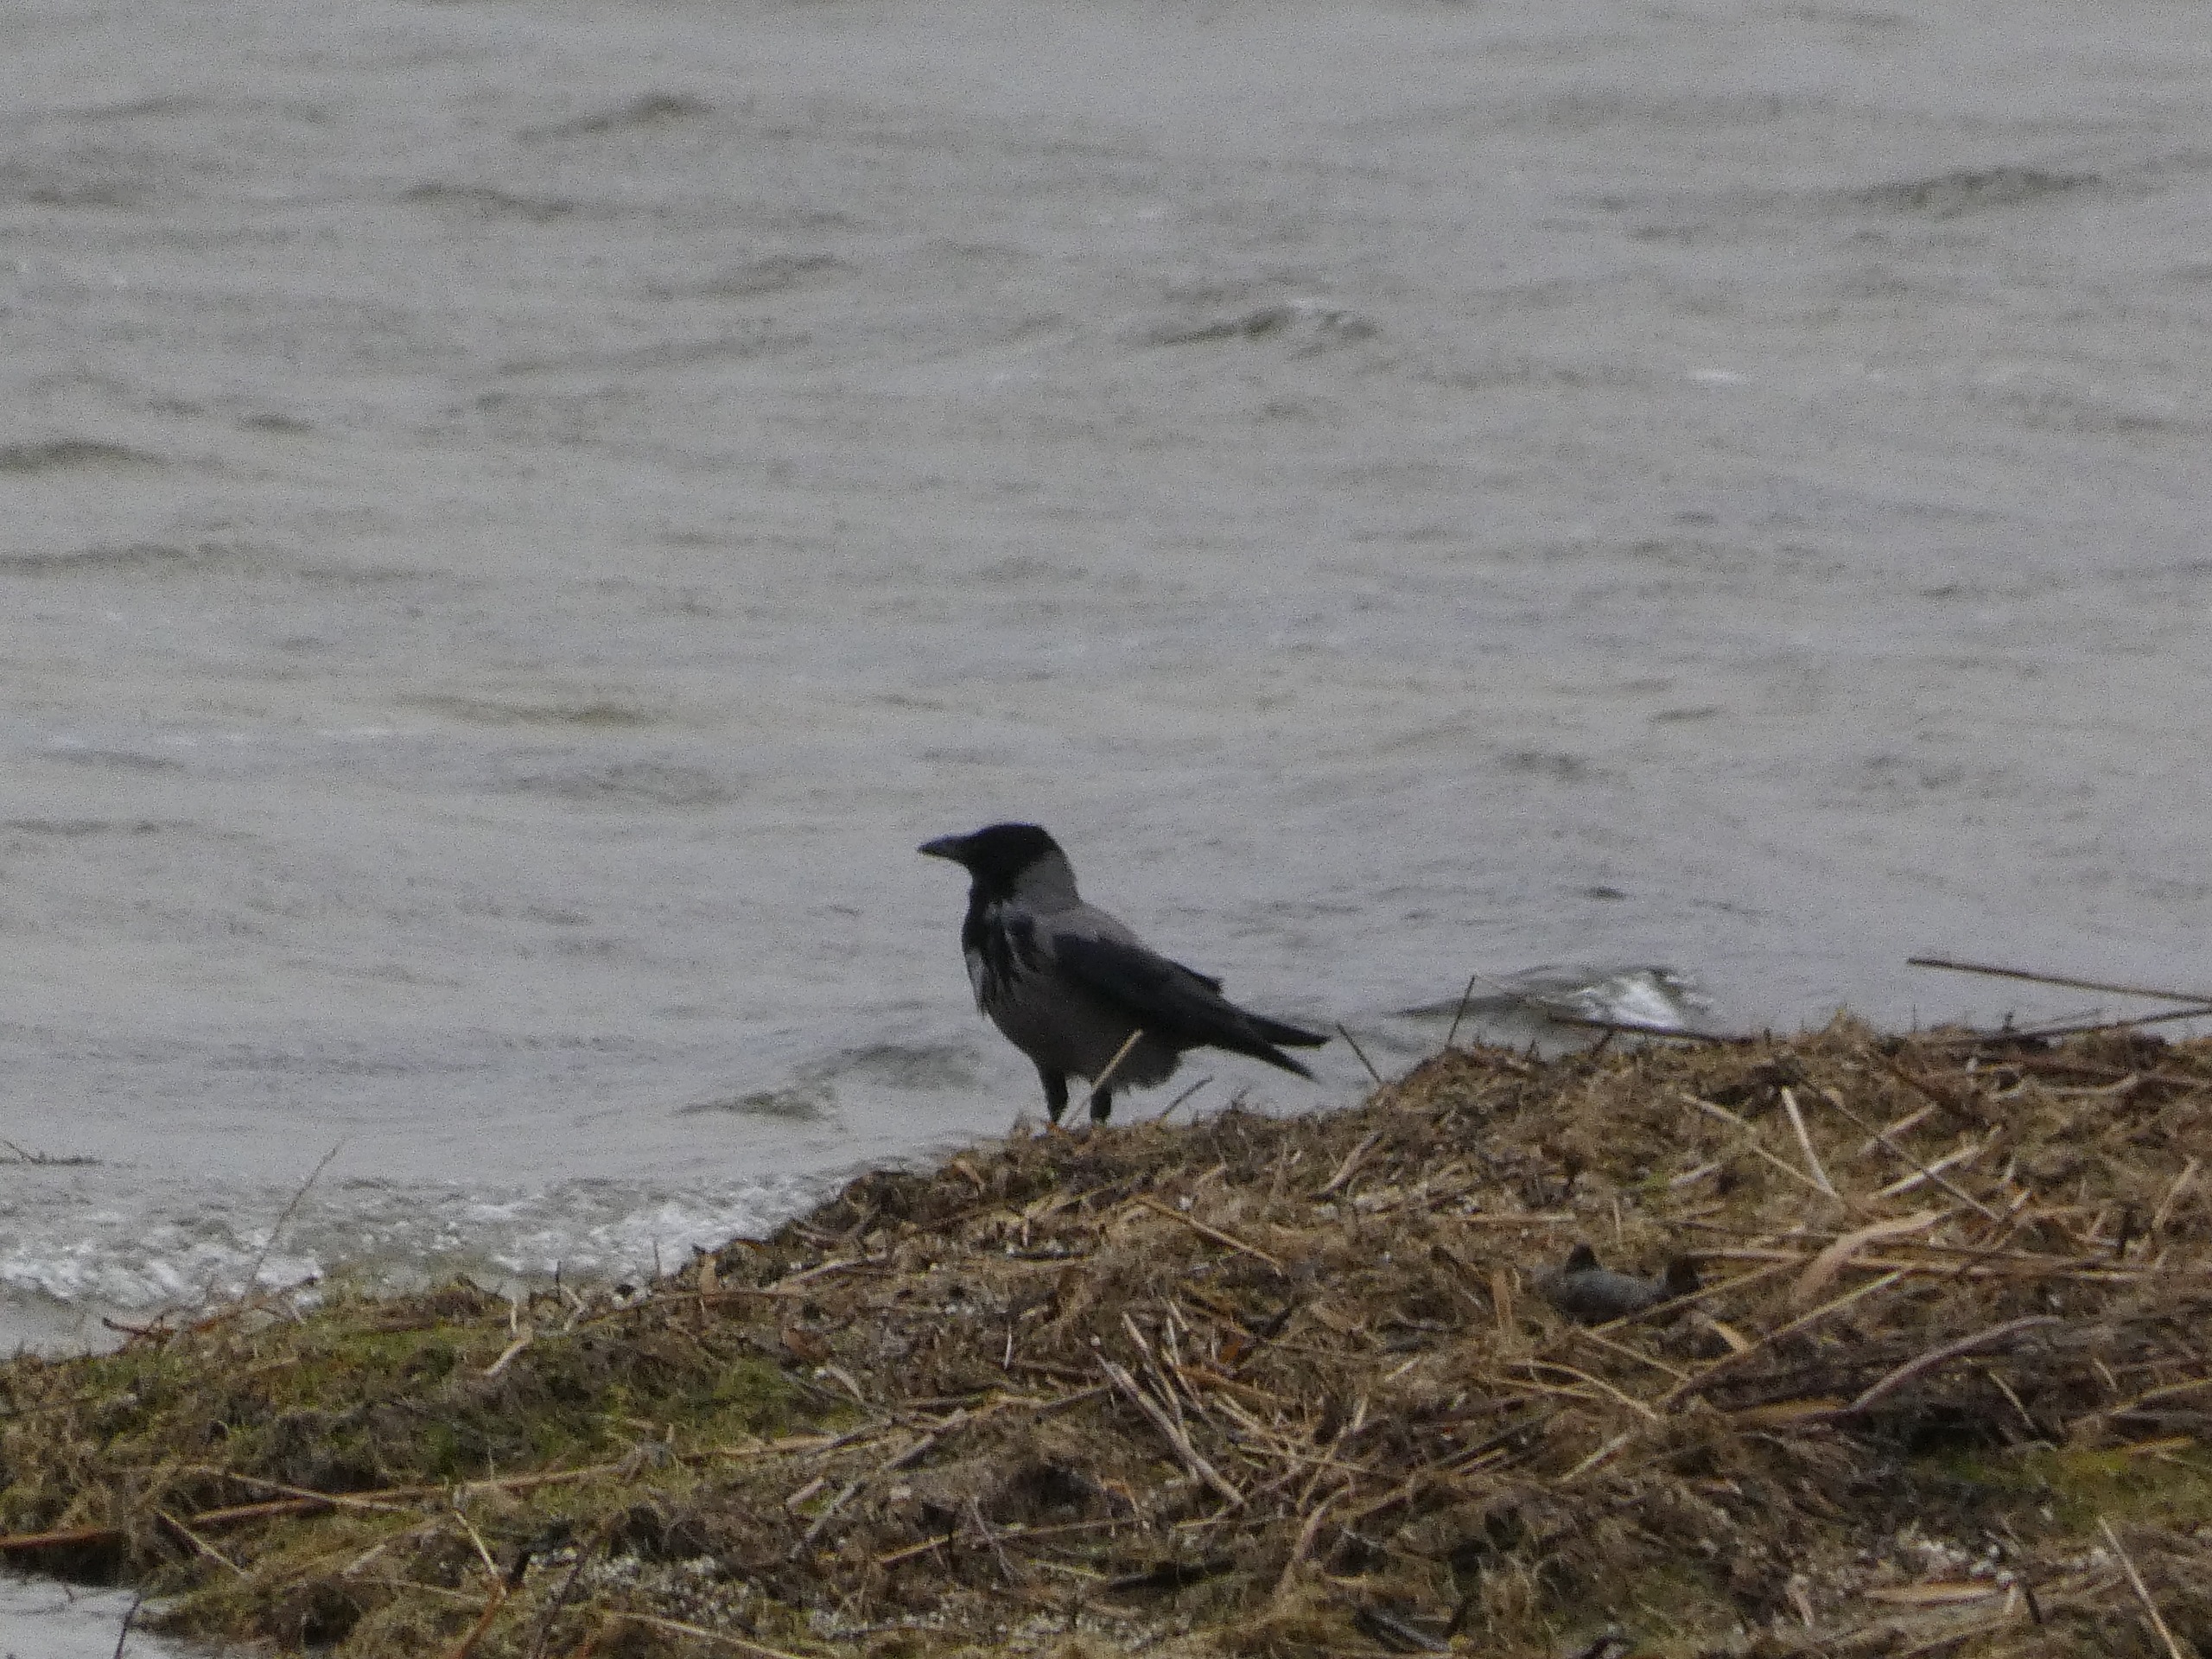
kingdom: Animalia
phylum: Chordata
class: Aves
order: Passeriformes
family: Corvidae
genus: Corvus
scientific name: Corvus cornix
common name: Gråkrage
